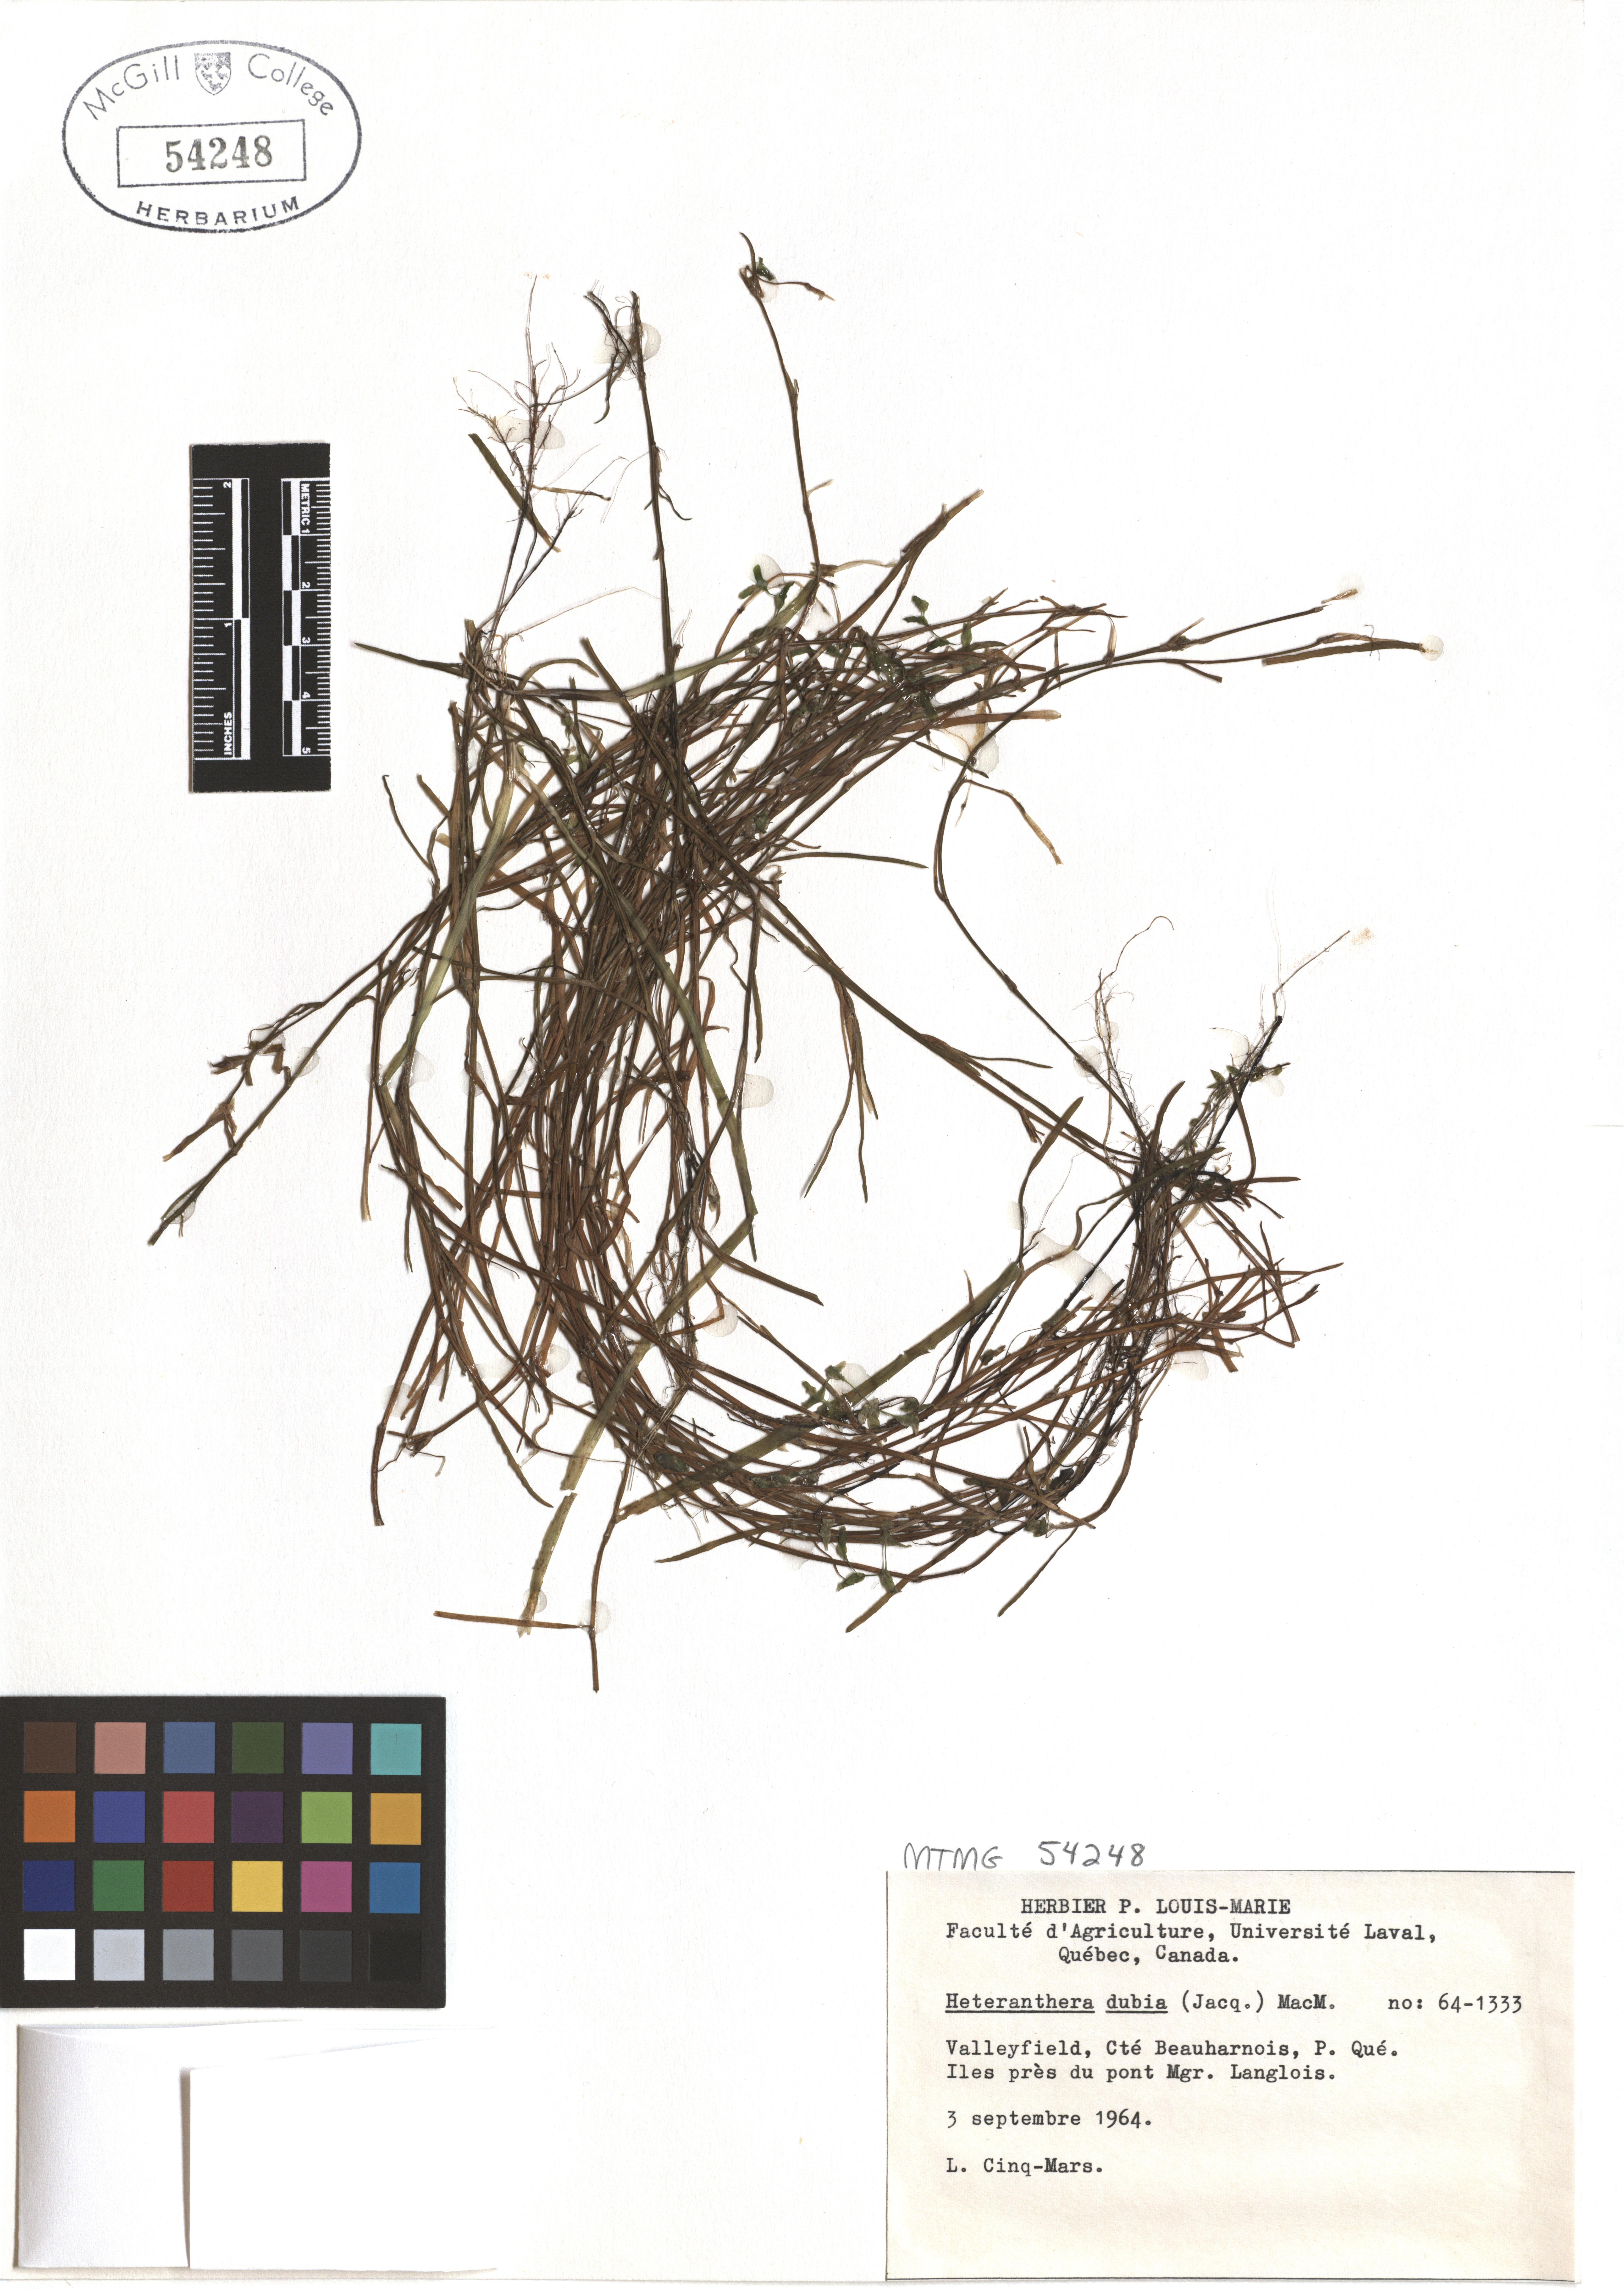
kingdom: Plantae
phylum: Tracheophyta
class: Liliopsida
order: Commelinales
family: Pontederiaceae
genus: Heteranthera
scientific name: Heteranthera dubia
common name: Grass-leaved mud plantain
